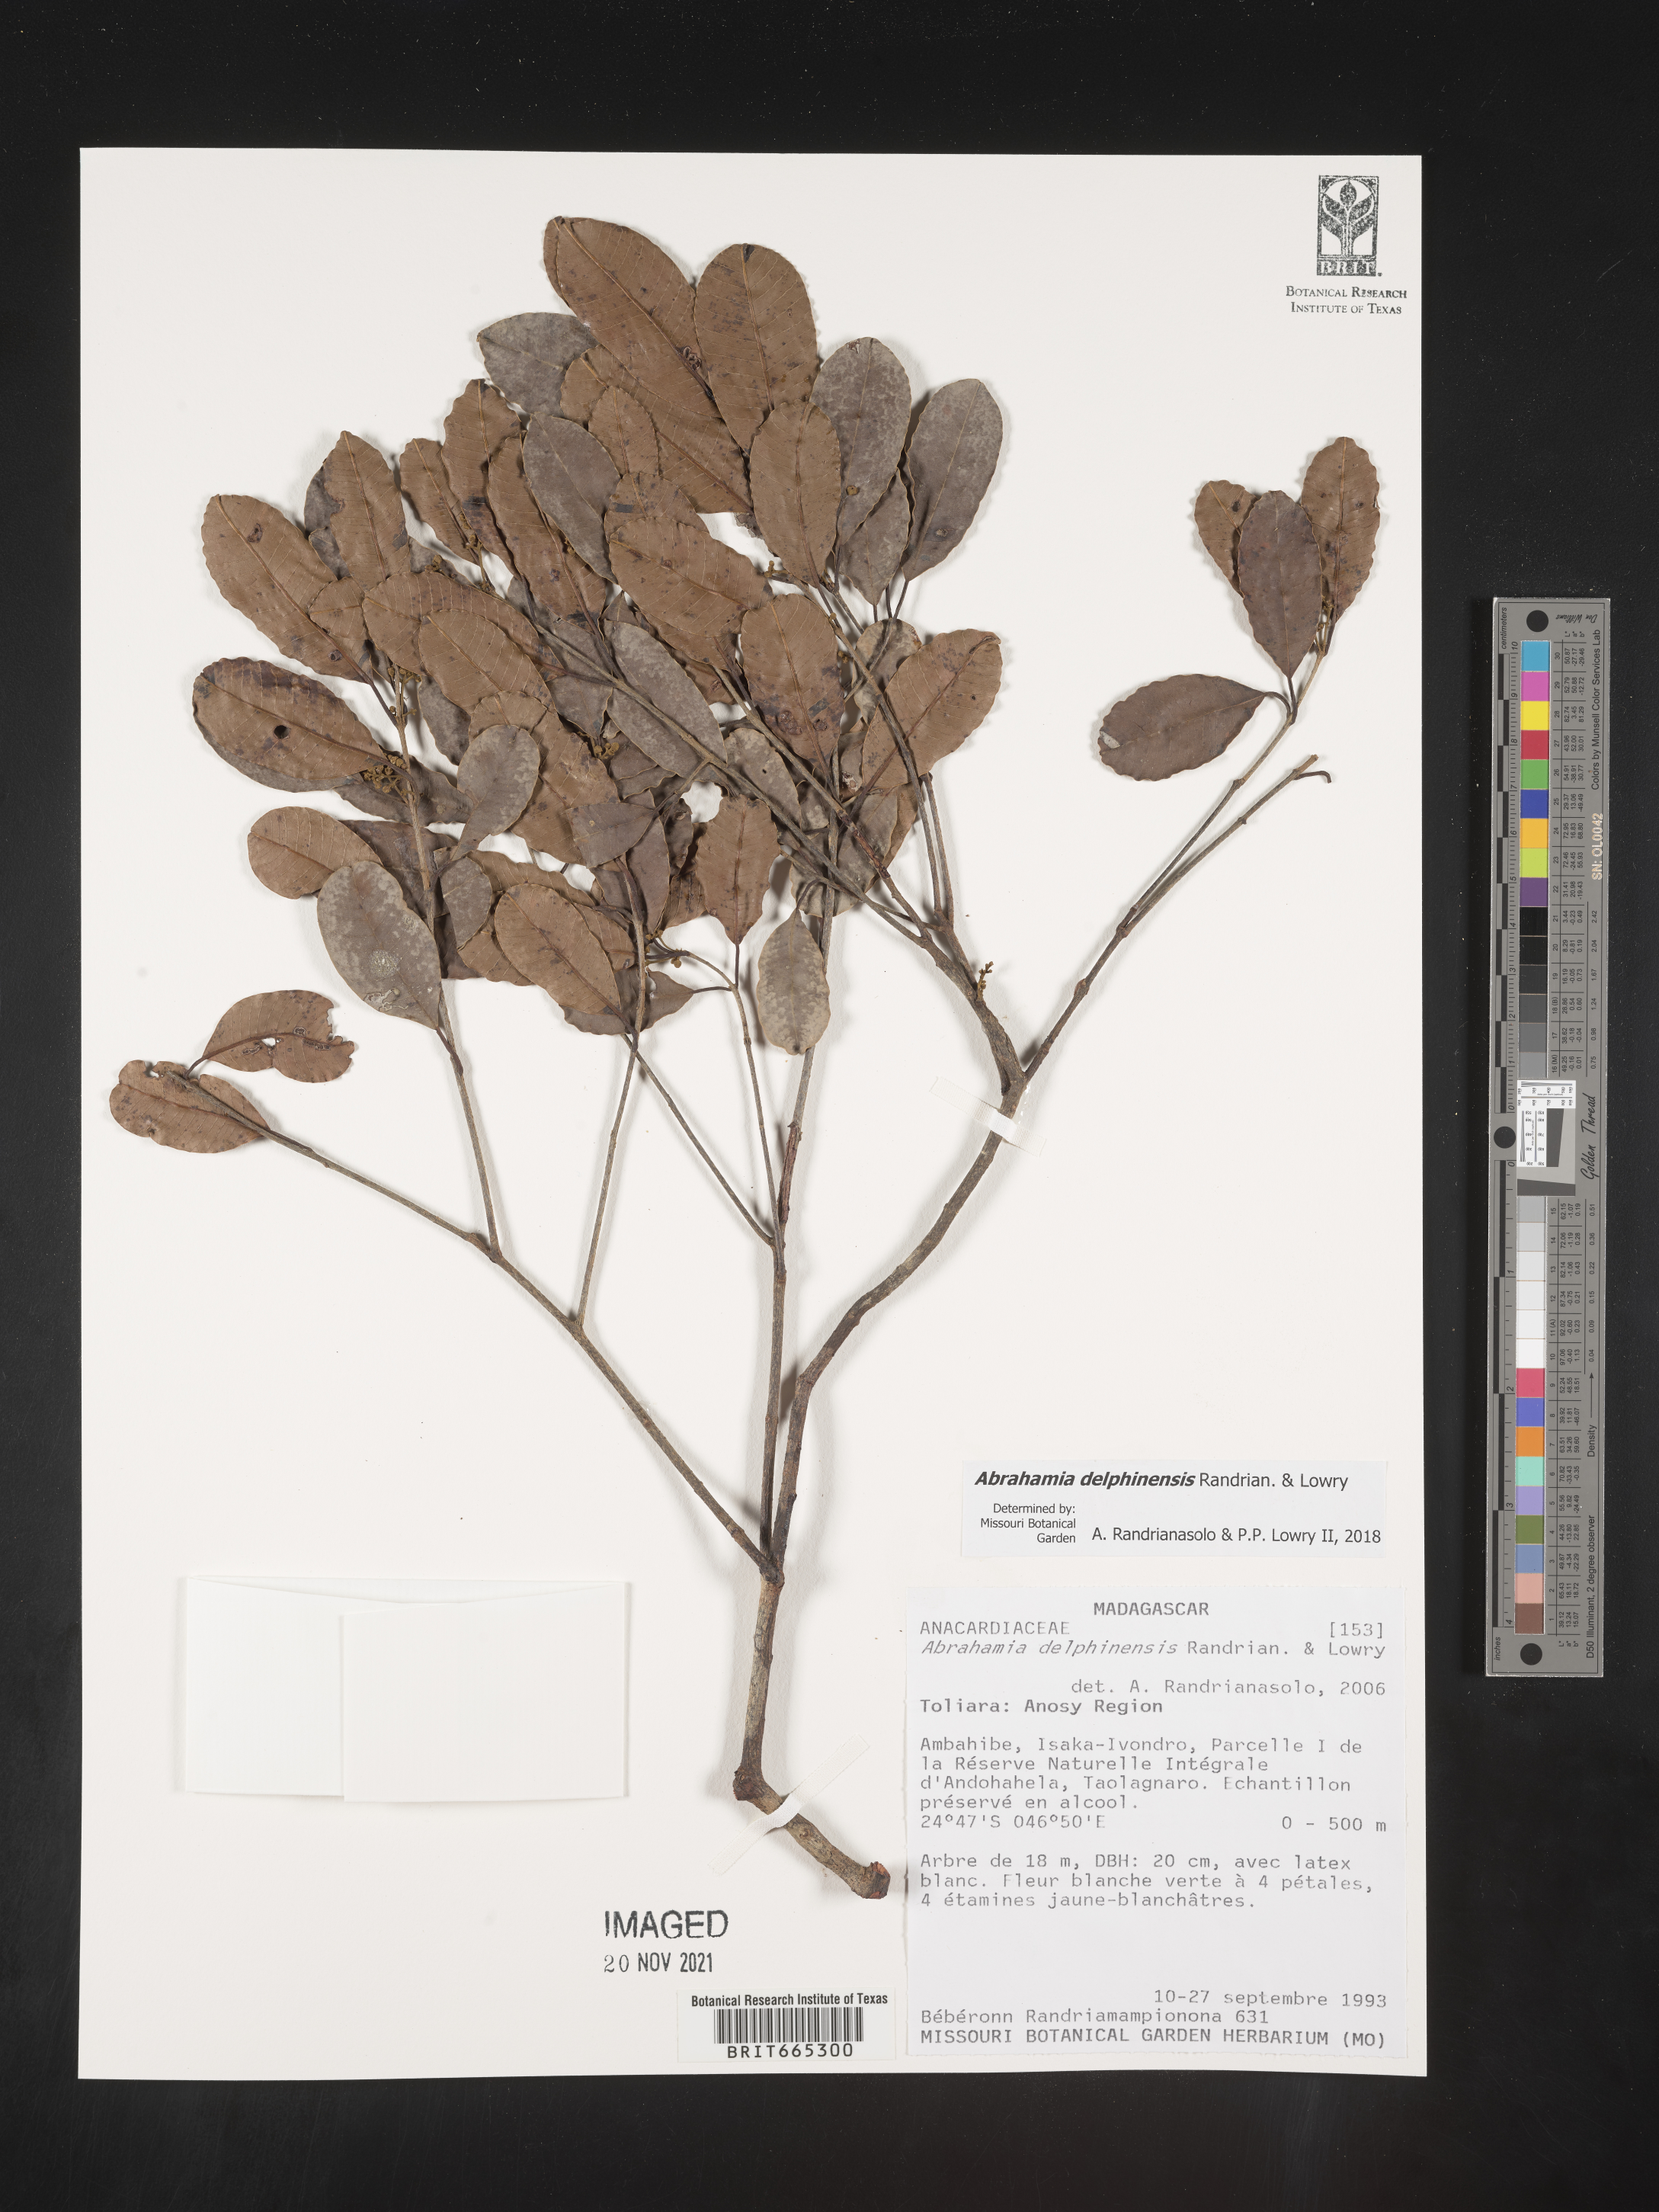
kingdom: Plantae
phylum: Tracheophyta
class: Magnoliopsida
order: Sapindales
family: Anacardiaceae
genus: Abrahamia
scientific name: Abrahamia
